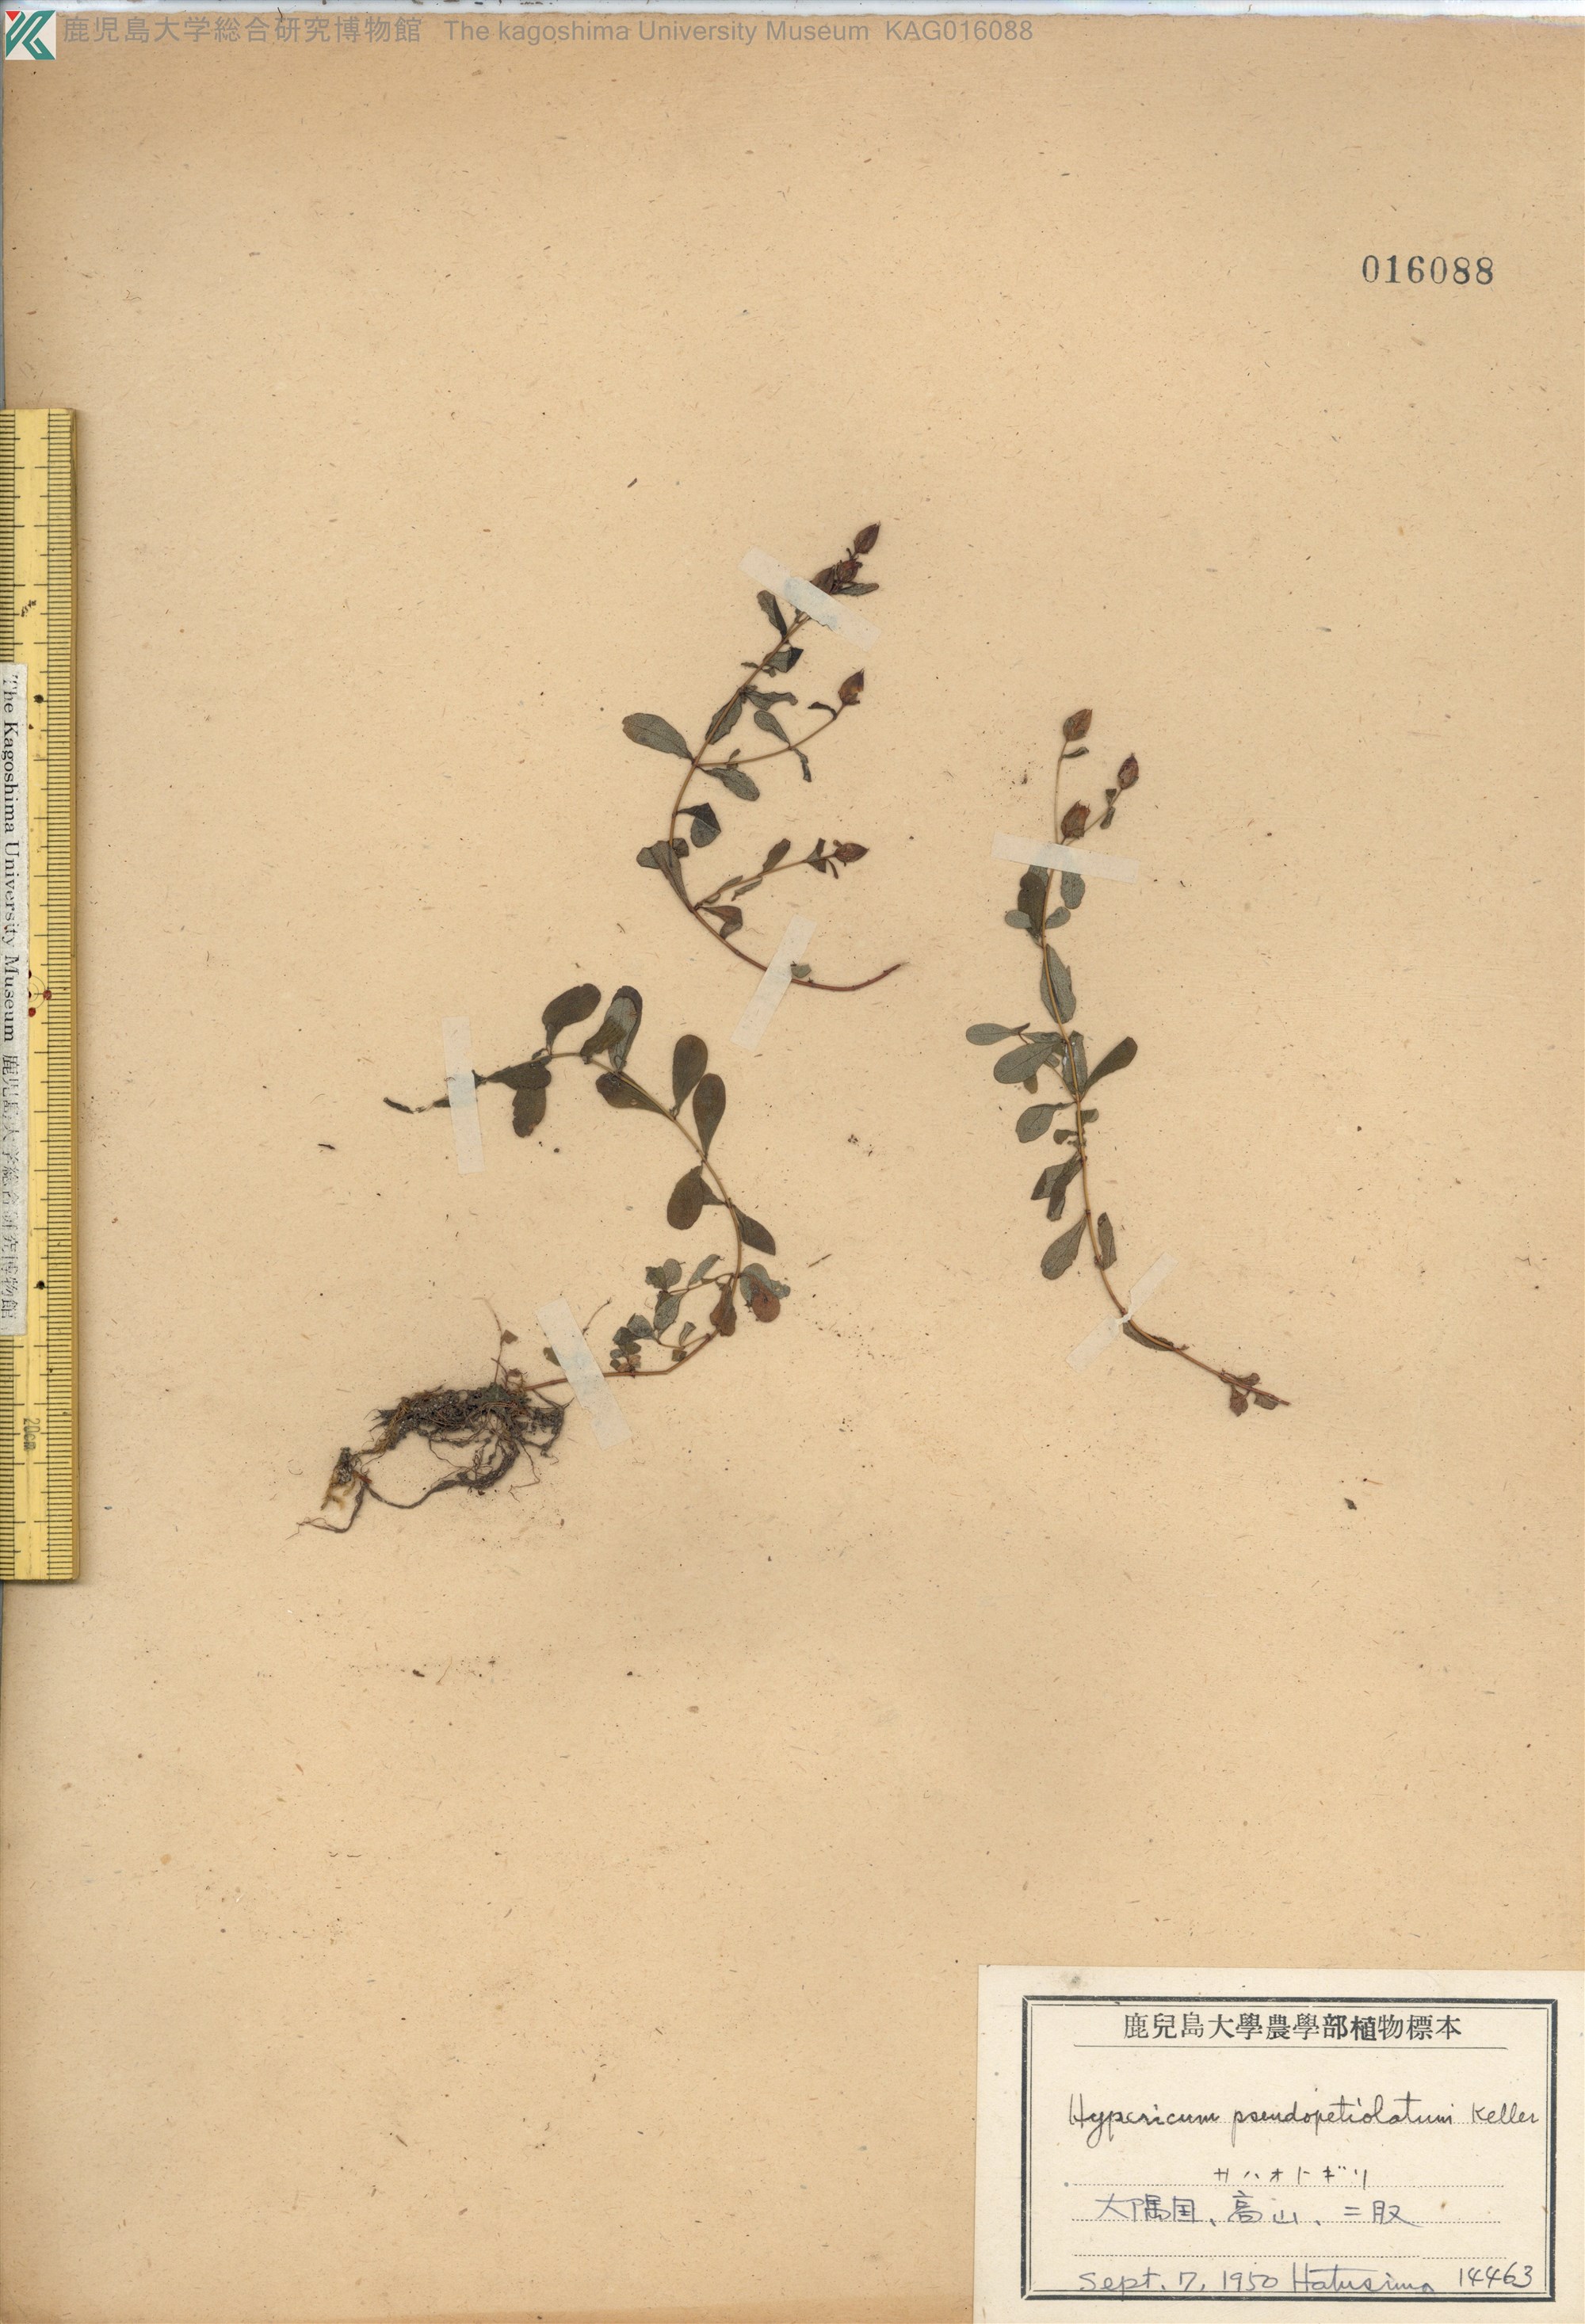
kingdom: Plantae
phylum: Tracheophyta
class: Magnoliopsida
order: Malpighiales
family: Hypericaceae
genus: Hypericum
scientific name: Hypericum pseudopetiolatum
